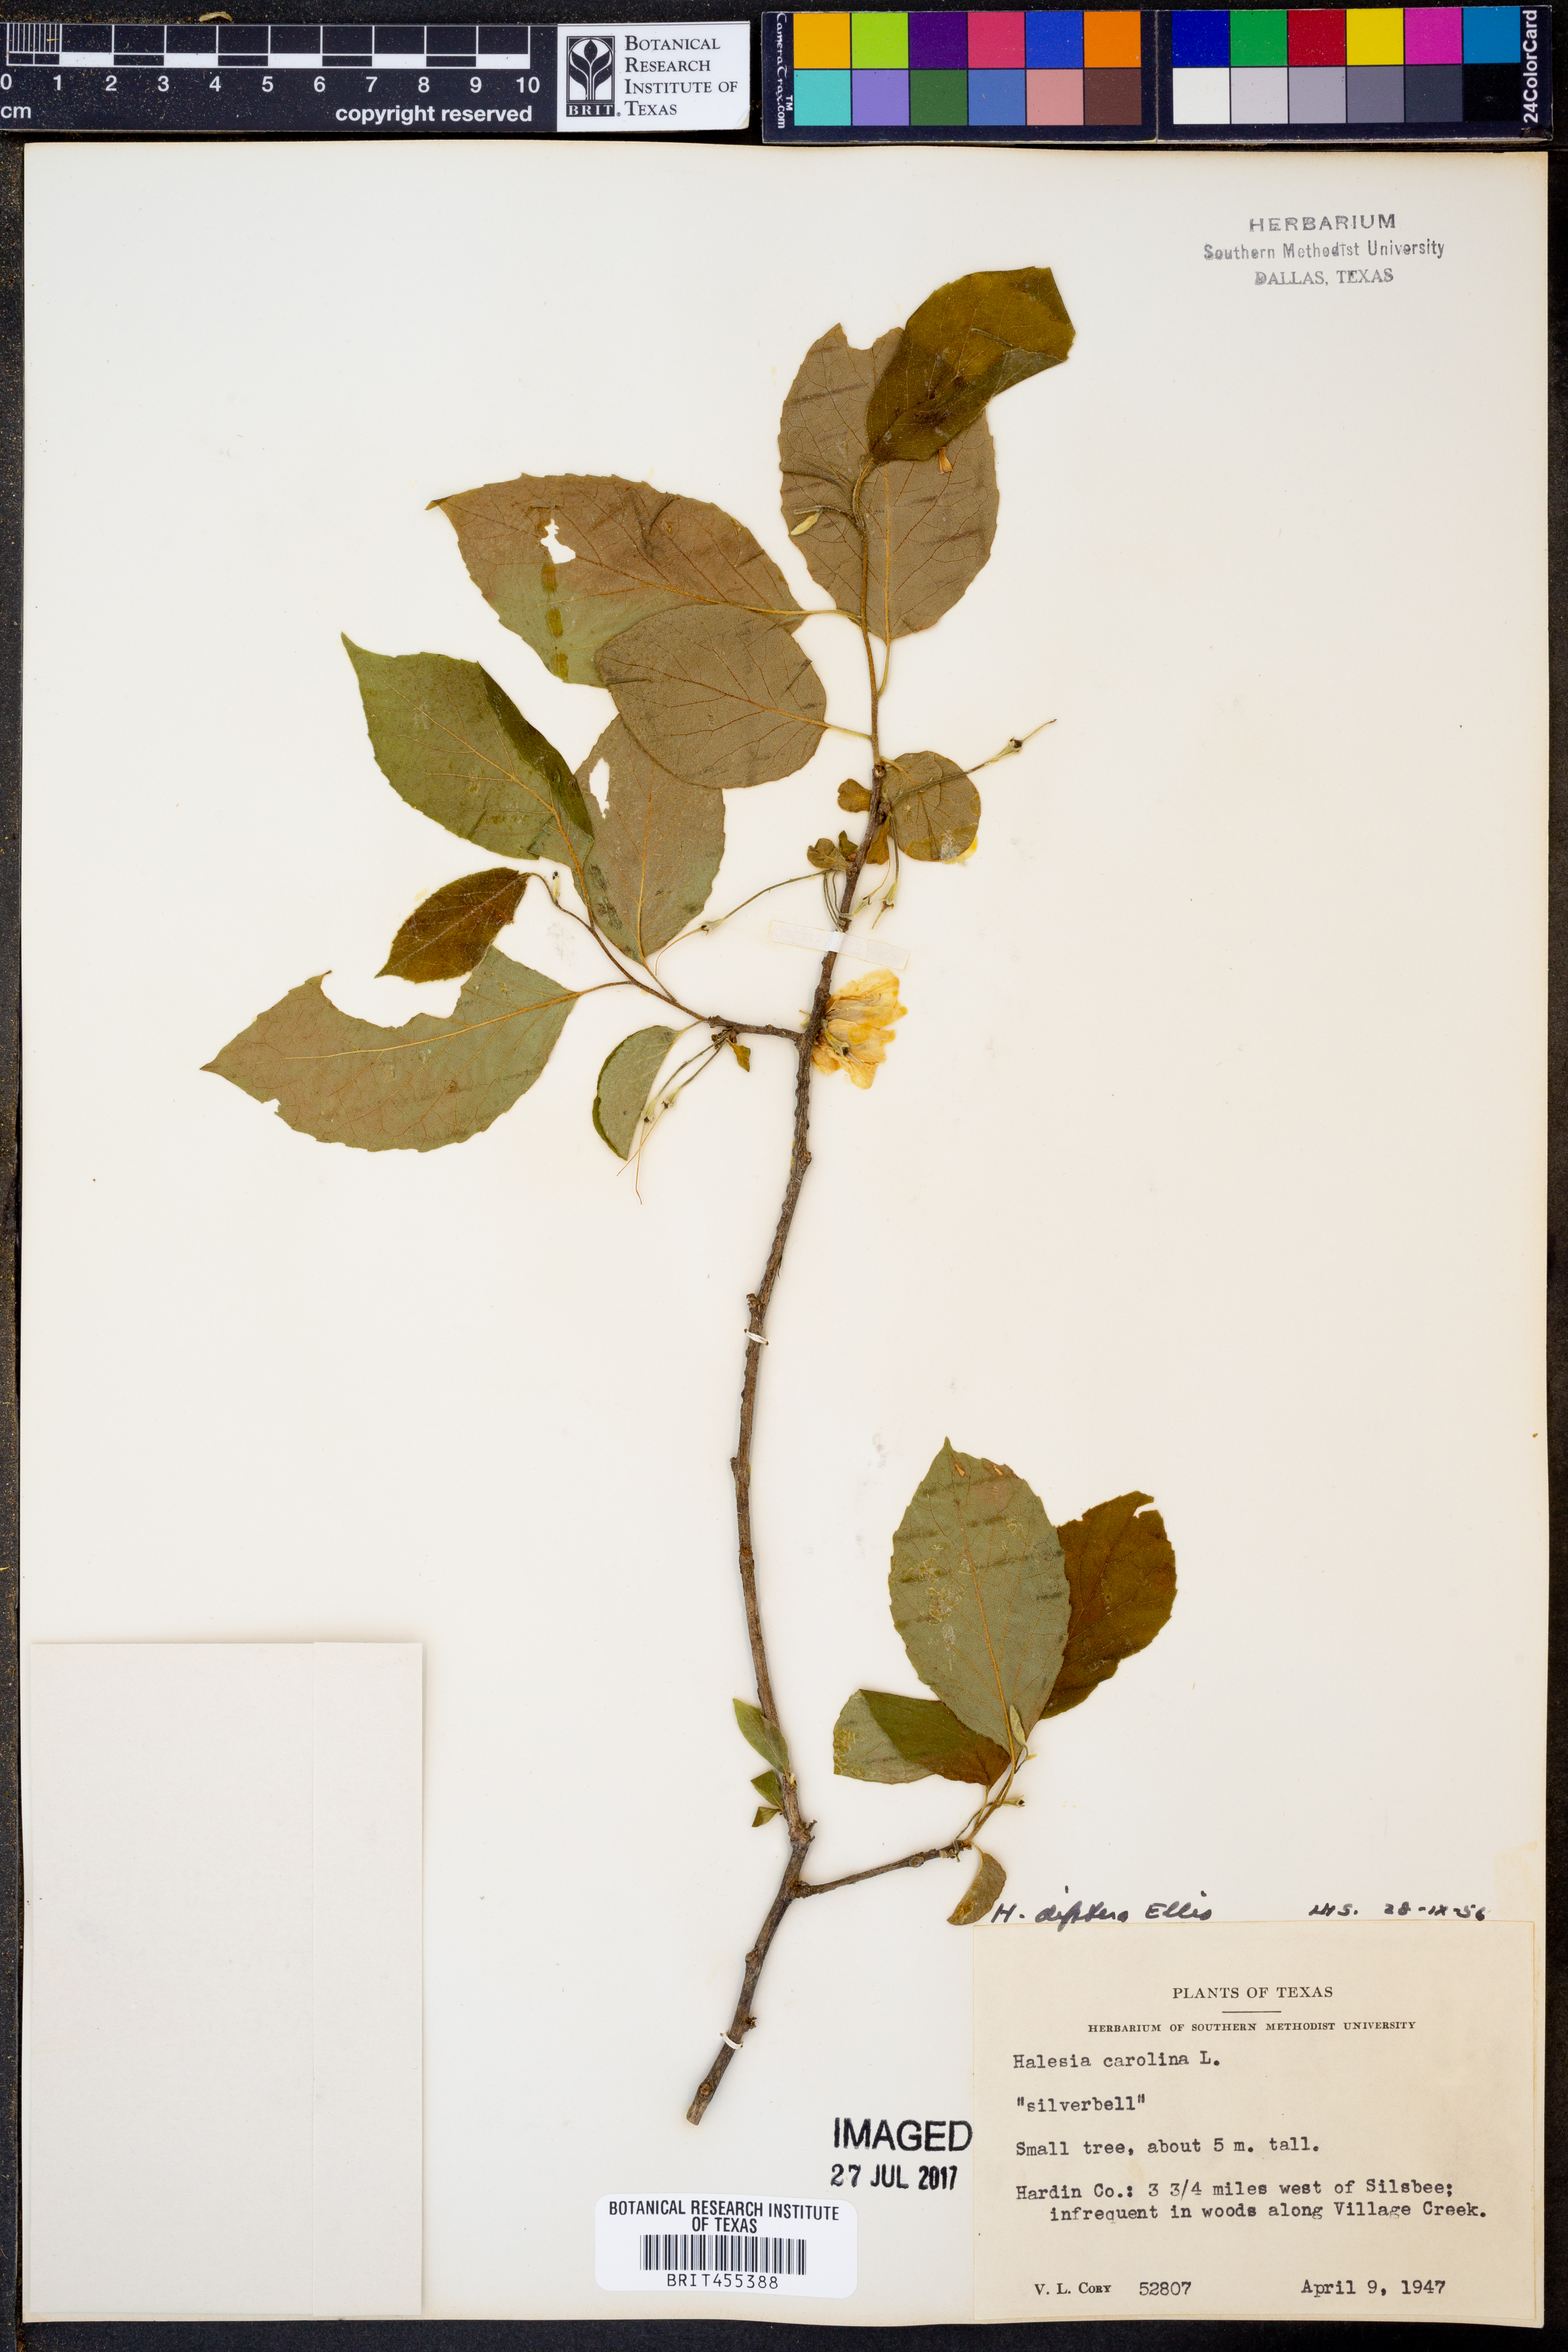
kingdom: Plantae
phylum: Tracheophyta
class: Magnoliopsida
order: Ericales
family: Styracaceae
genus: Halesia
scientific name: Halesia carolina
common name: Carolina silverbell
